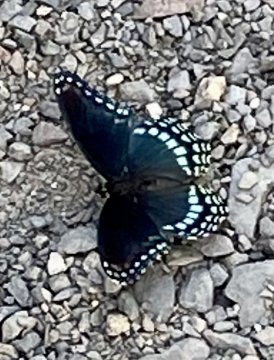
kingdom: Animalia
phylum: Arthropoda
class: Insecta
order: Lepidoptera
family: Nymphalidae
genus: Limenitis
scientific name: Limenitis arthemis
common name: Red-spotted Admiral
